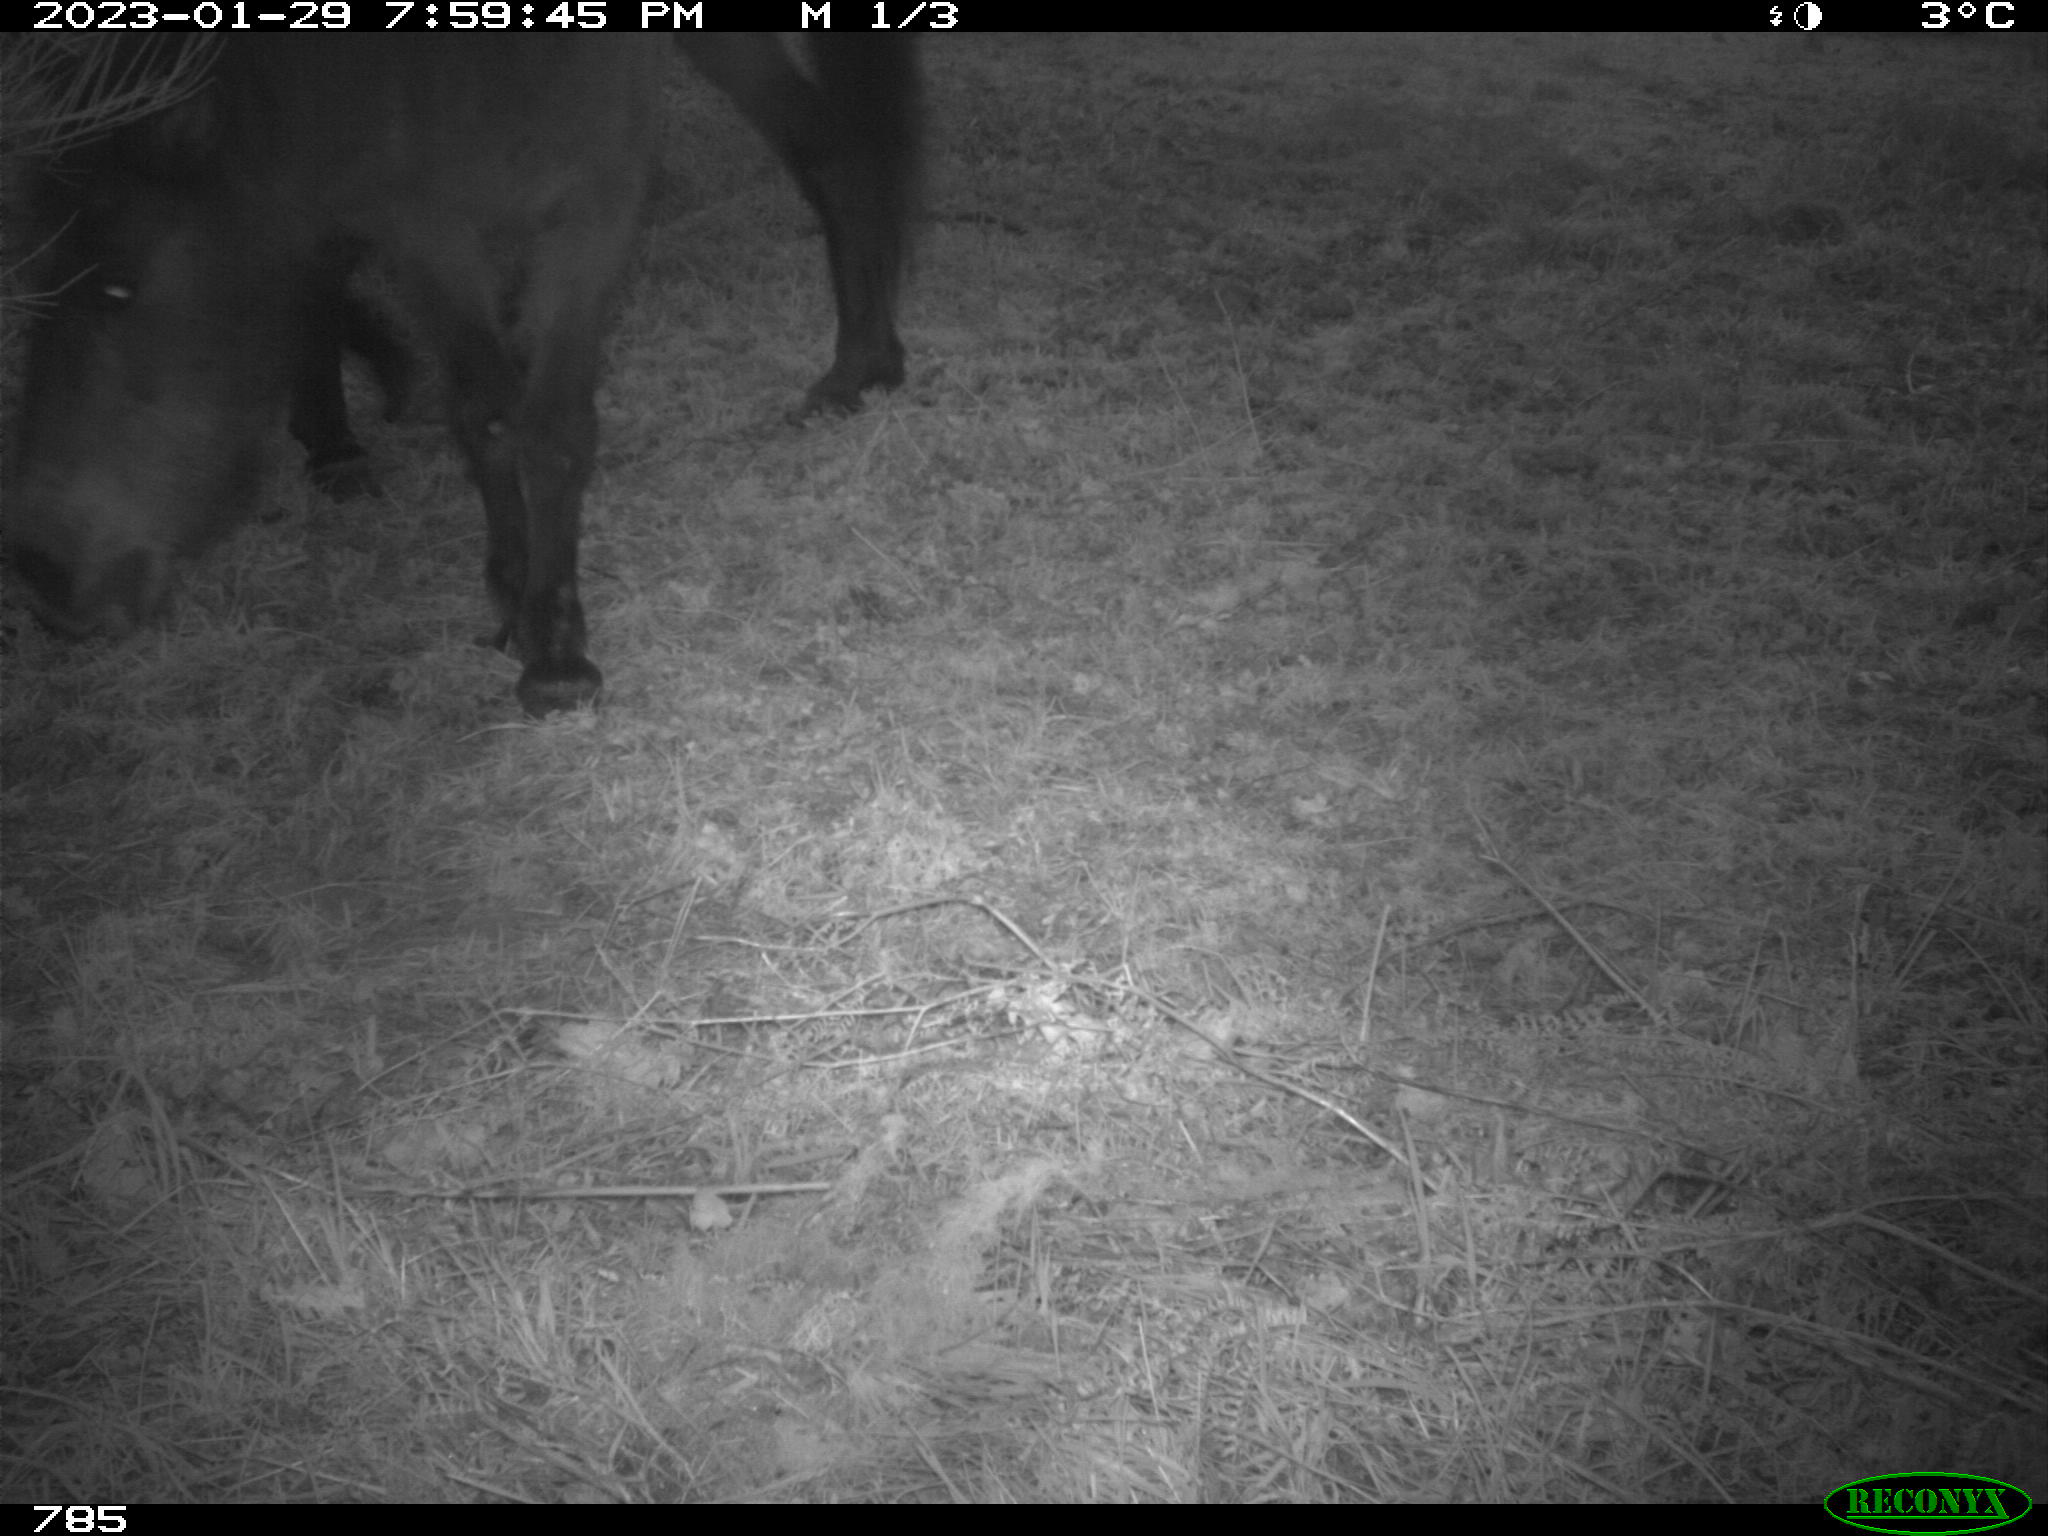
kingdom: Animalia
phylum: Chordata
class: Mammalia
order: Perissodactyla
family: Equidae
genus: Equus
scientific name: Equus caballus
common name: Horse
